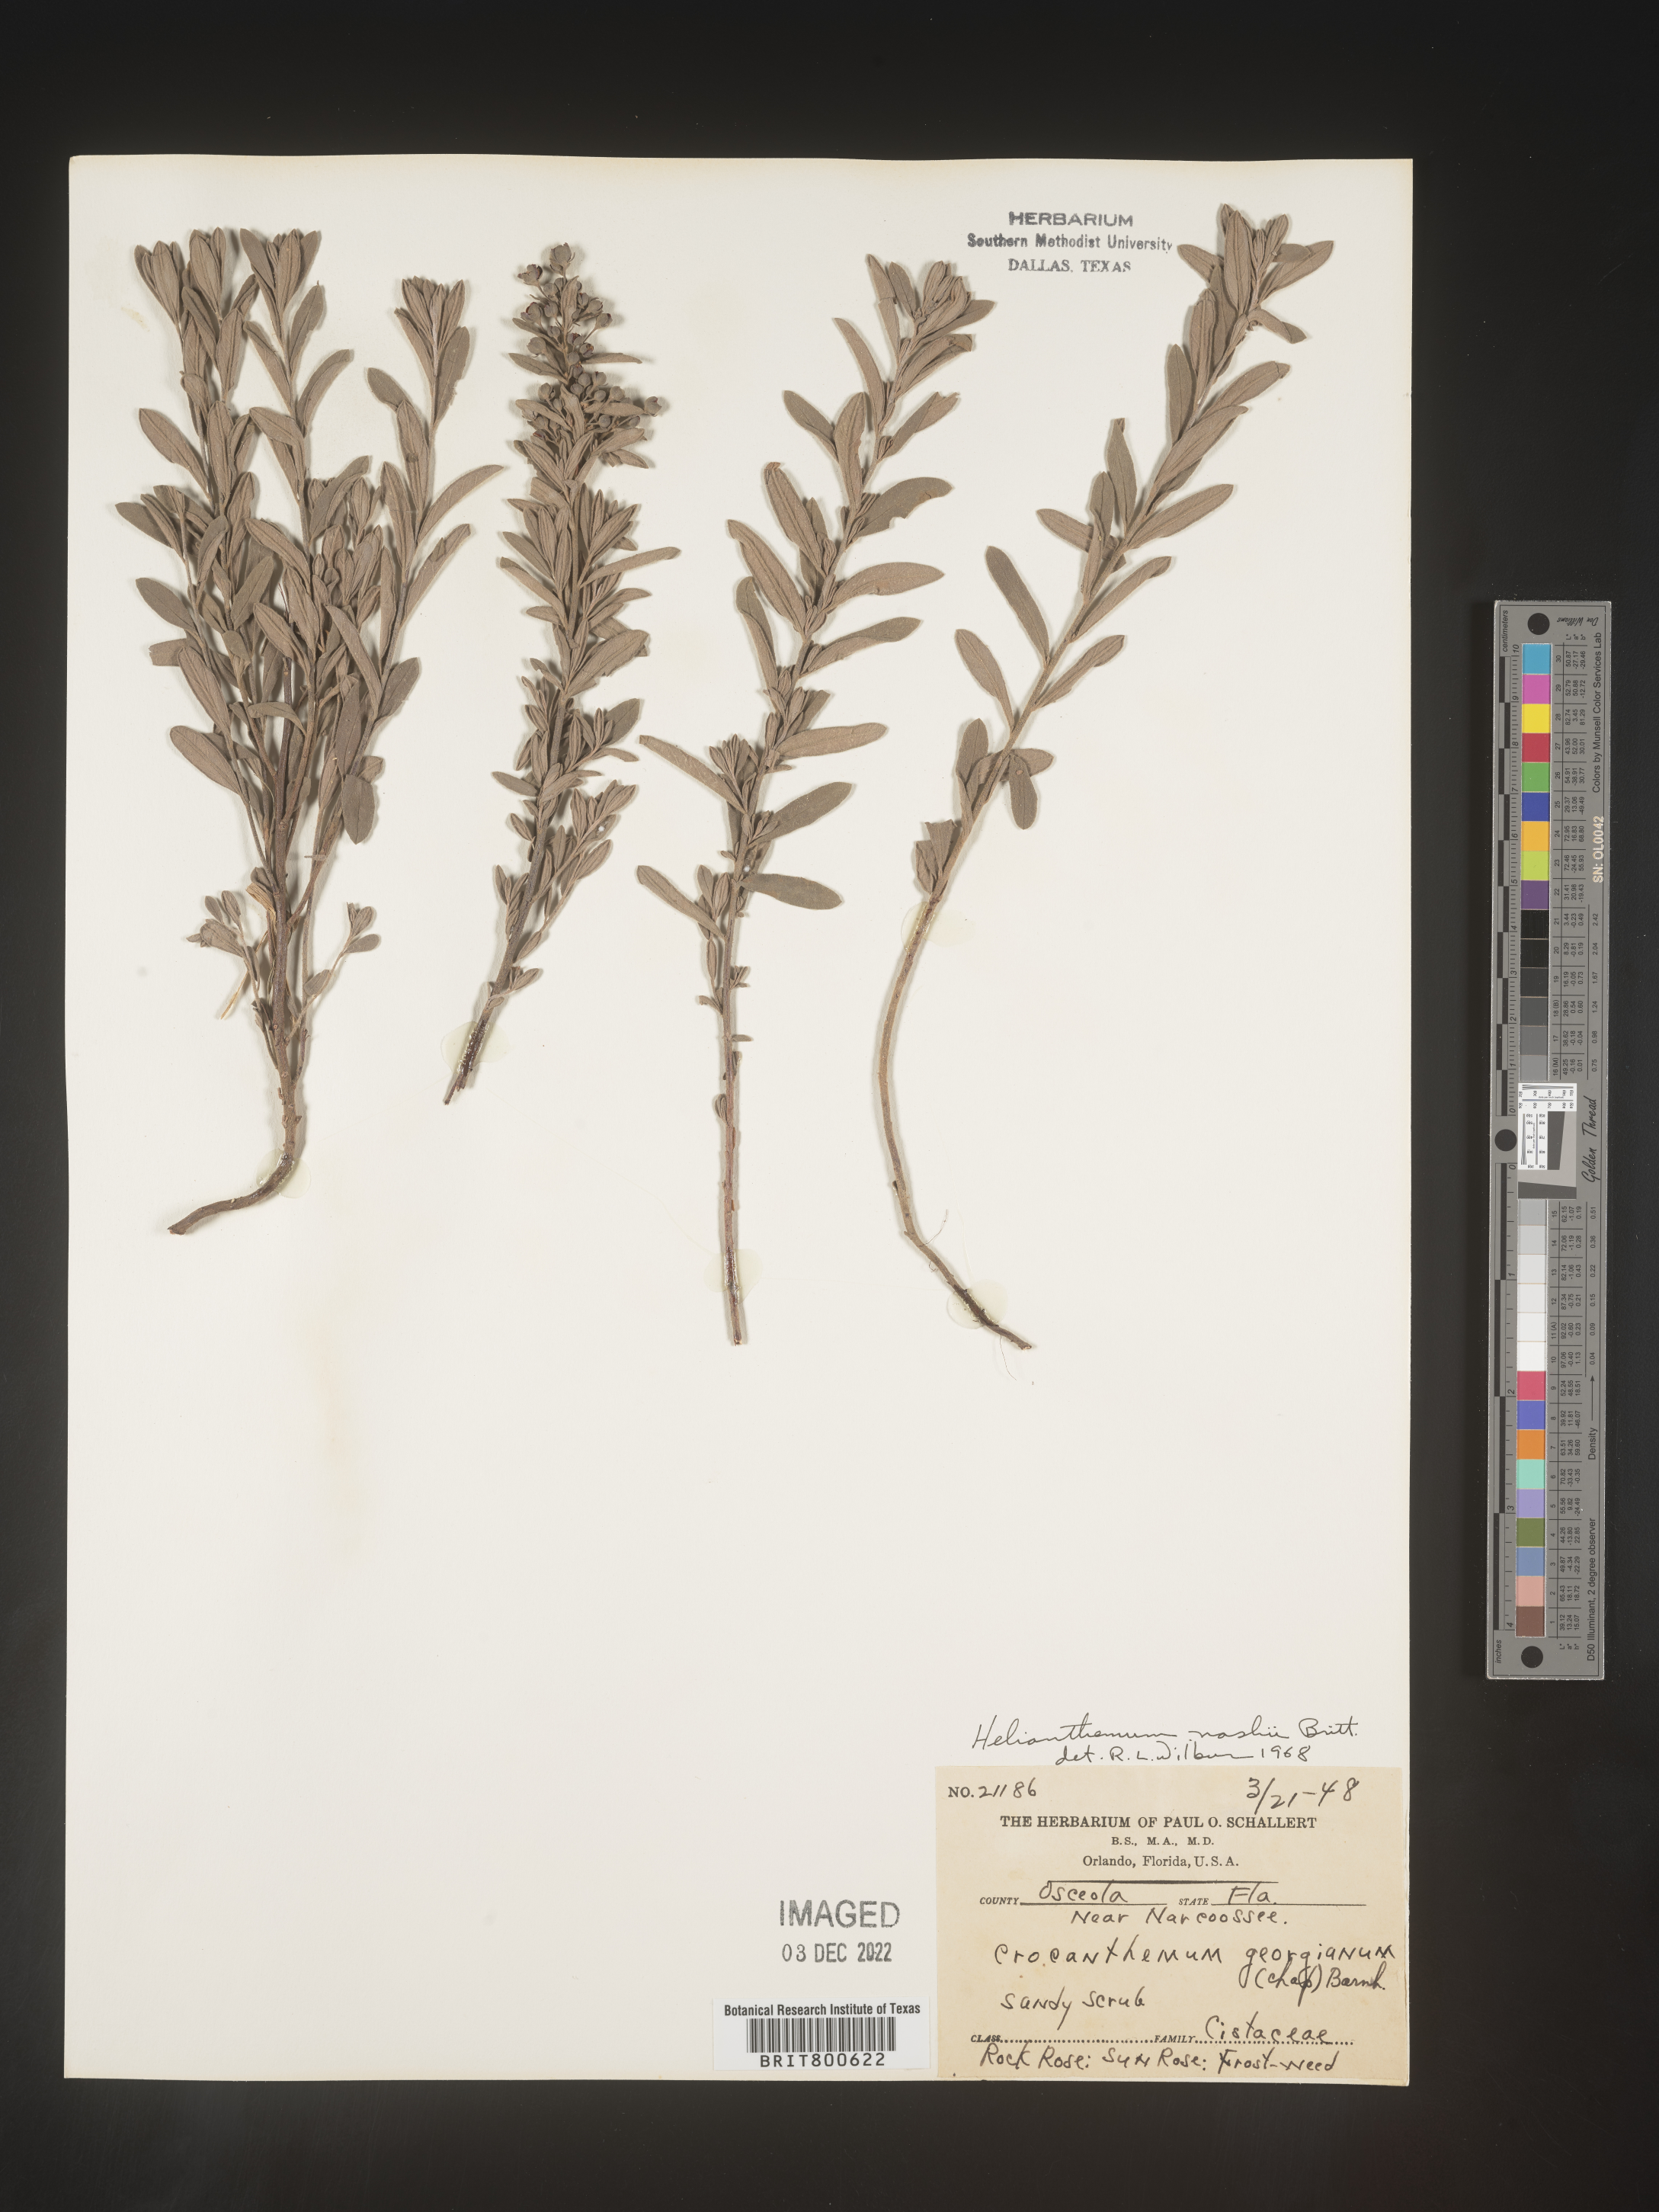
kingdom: Plantae
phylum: Tracheophyta
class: Magnoliopsida
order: Malvales
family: Cistaceae
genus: Helianthemum
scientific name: Helianthemum
